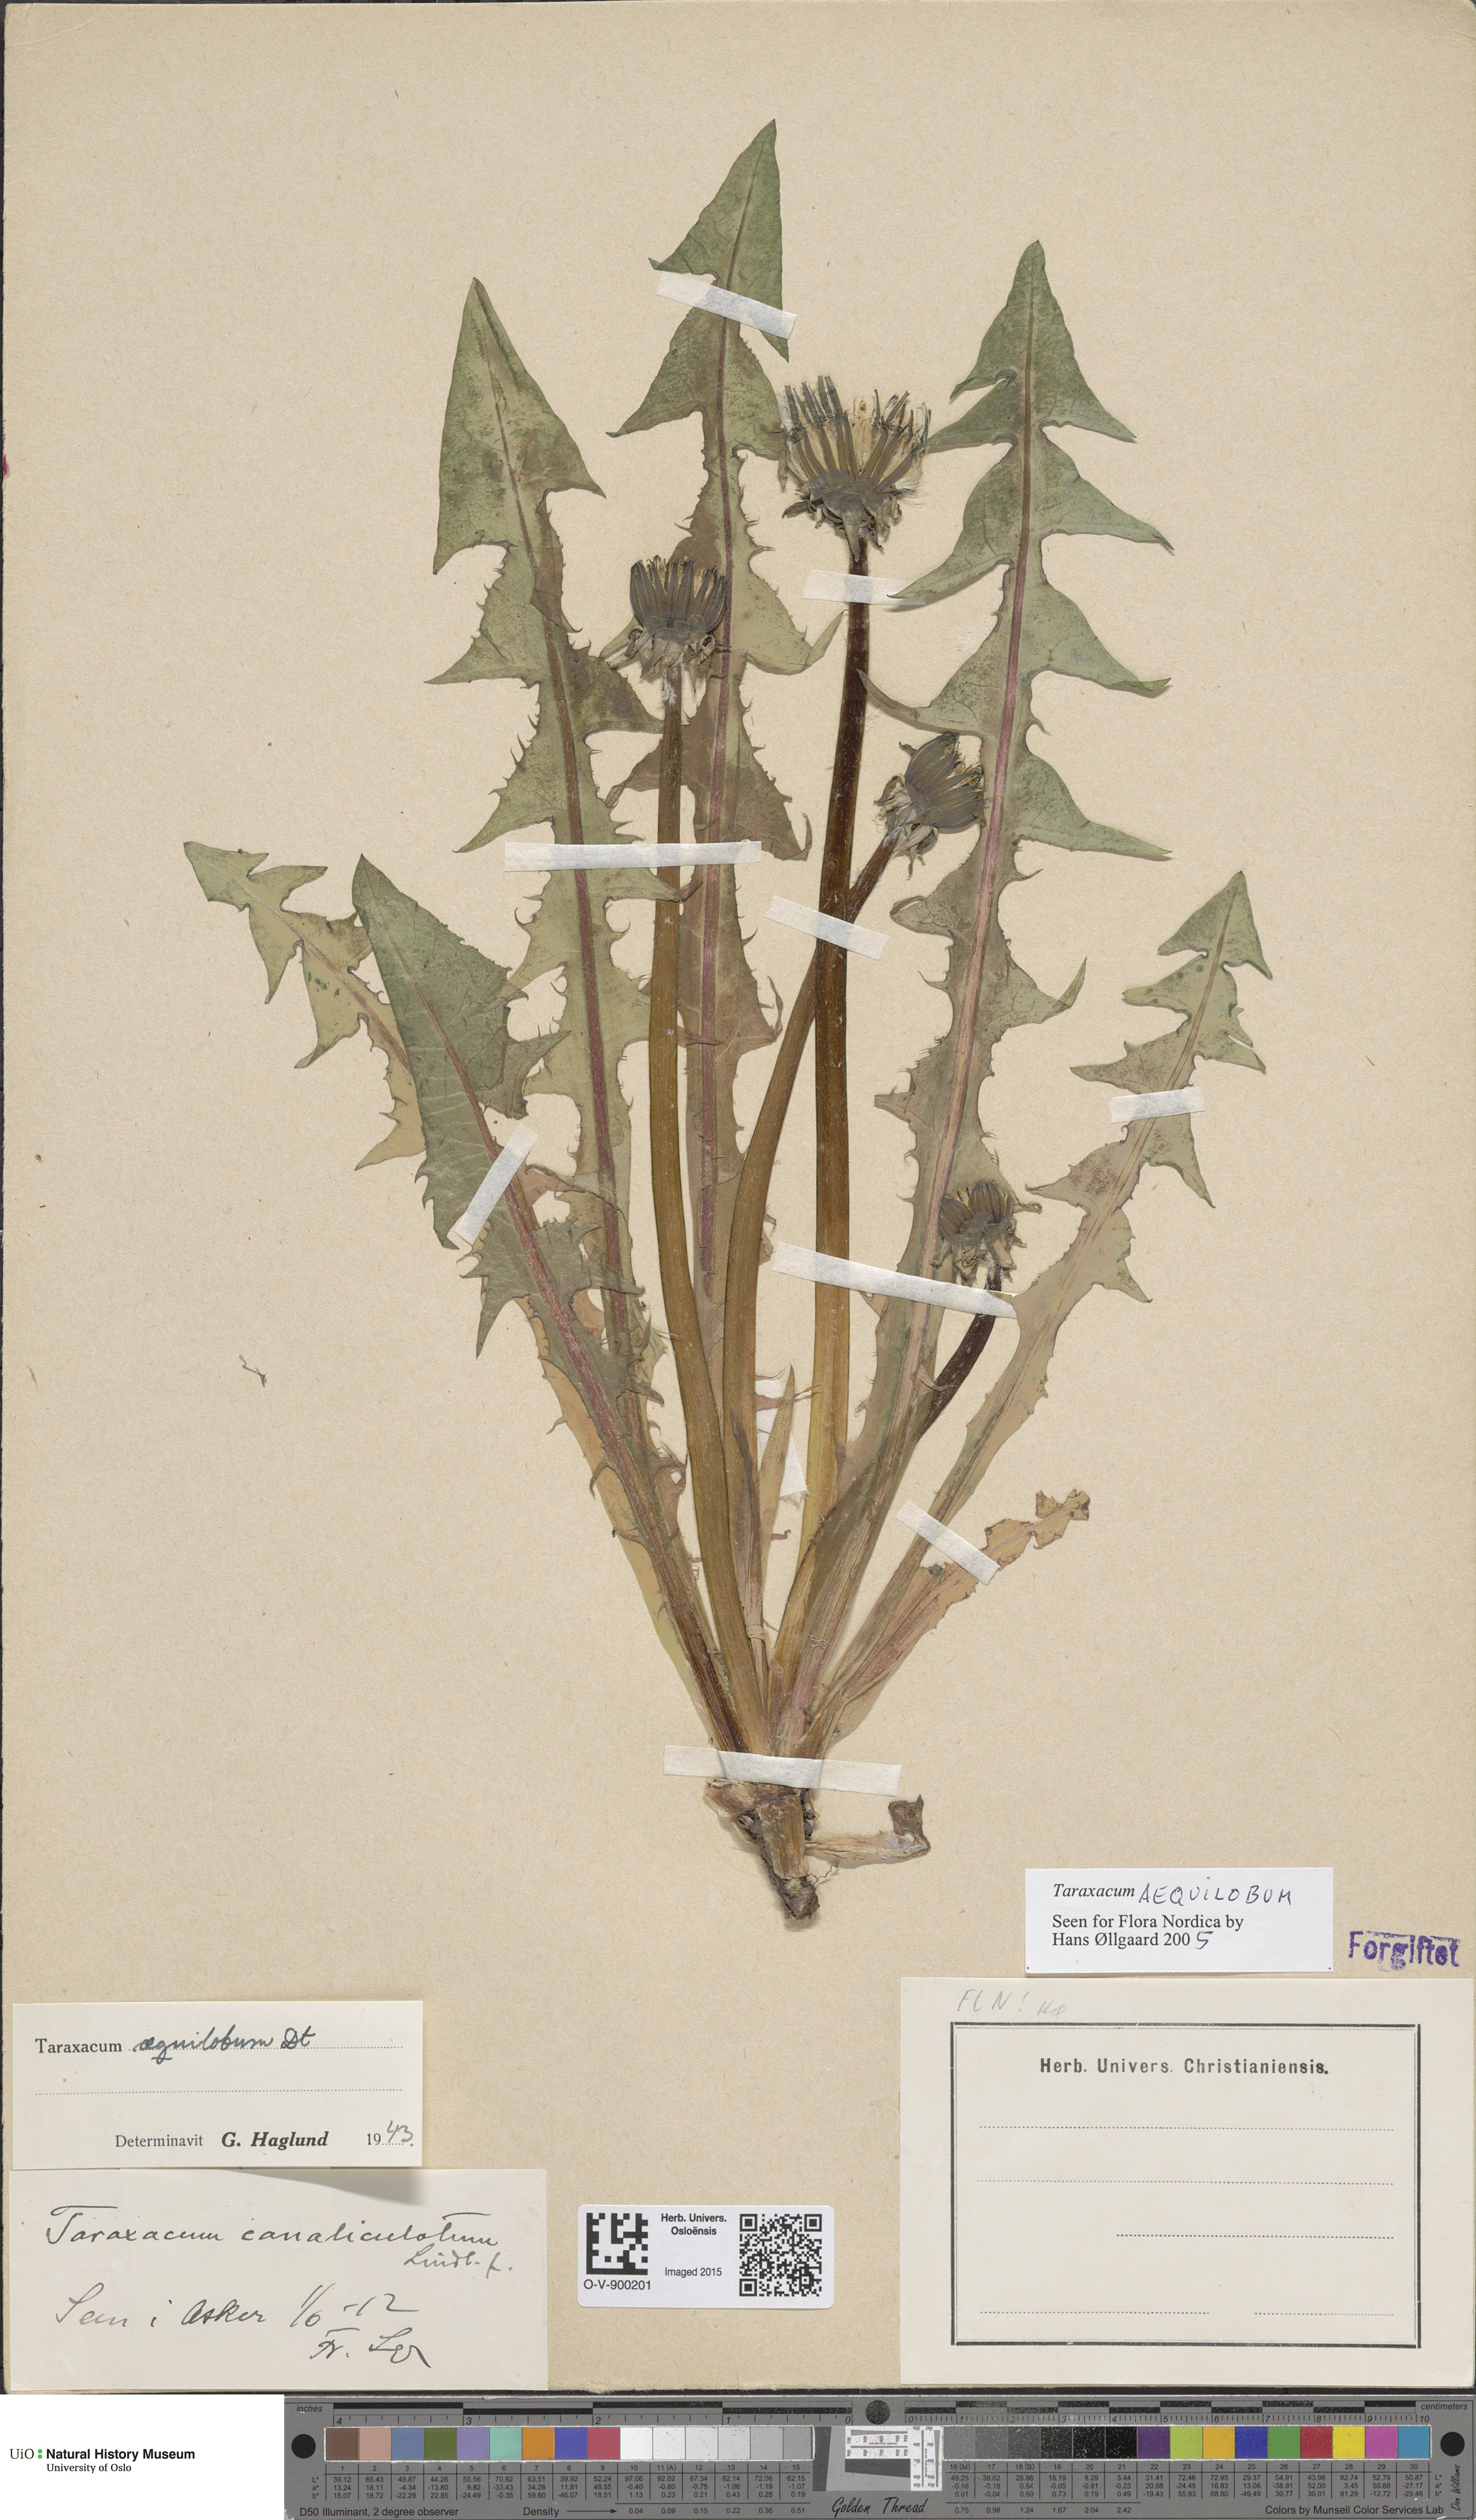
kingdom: Plantae
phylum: Tracheophyta
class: Magnoliopsida
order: Asterales
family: Asteraceae
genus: Taraxacum
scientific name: Taraxacum aequilobum
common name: Twisted-bracted dandelion
